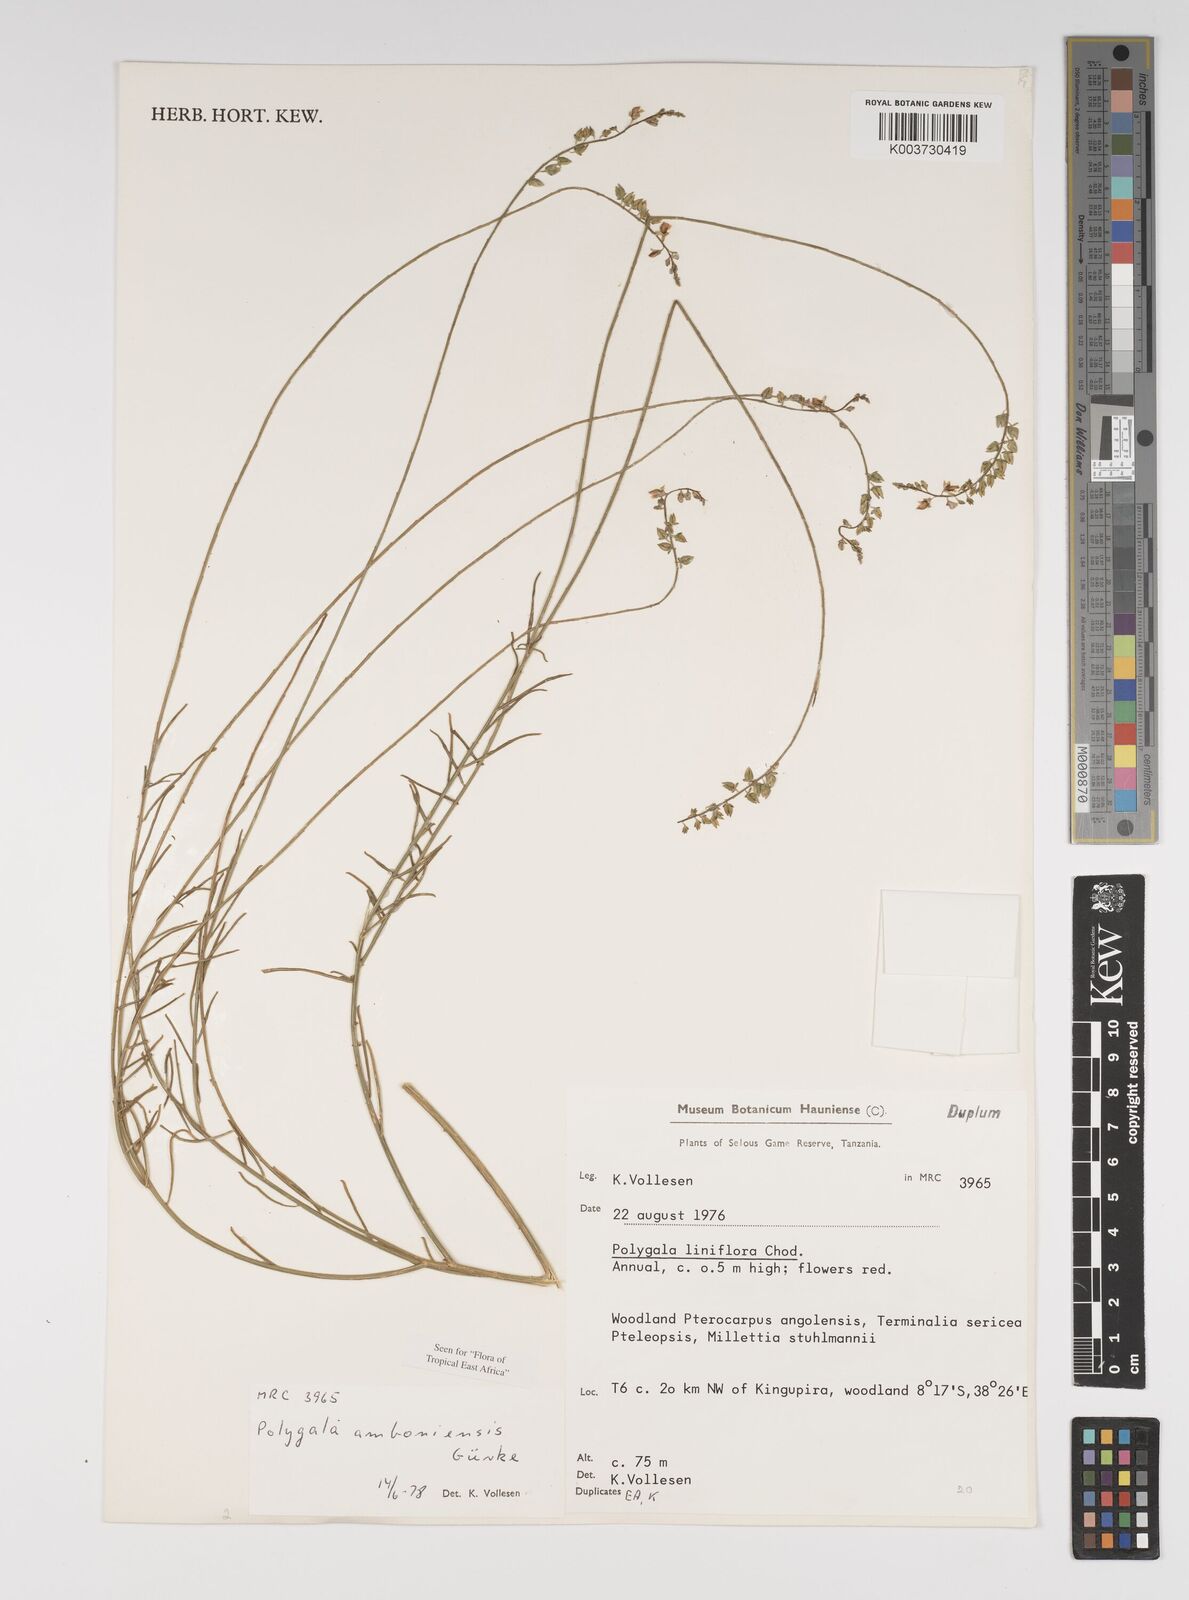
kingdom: Plantae
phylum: Tracheophyta
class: Magnoliopsida
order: Fabales
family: Polygalaceae
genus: Polygala
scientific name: Polygala amboniensis
